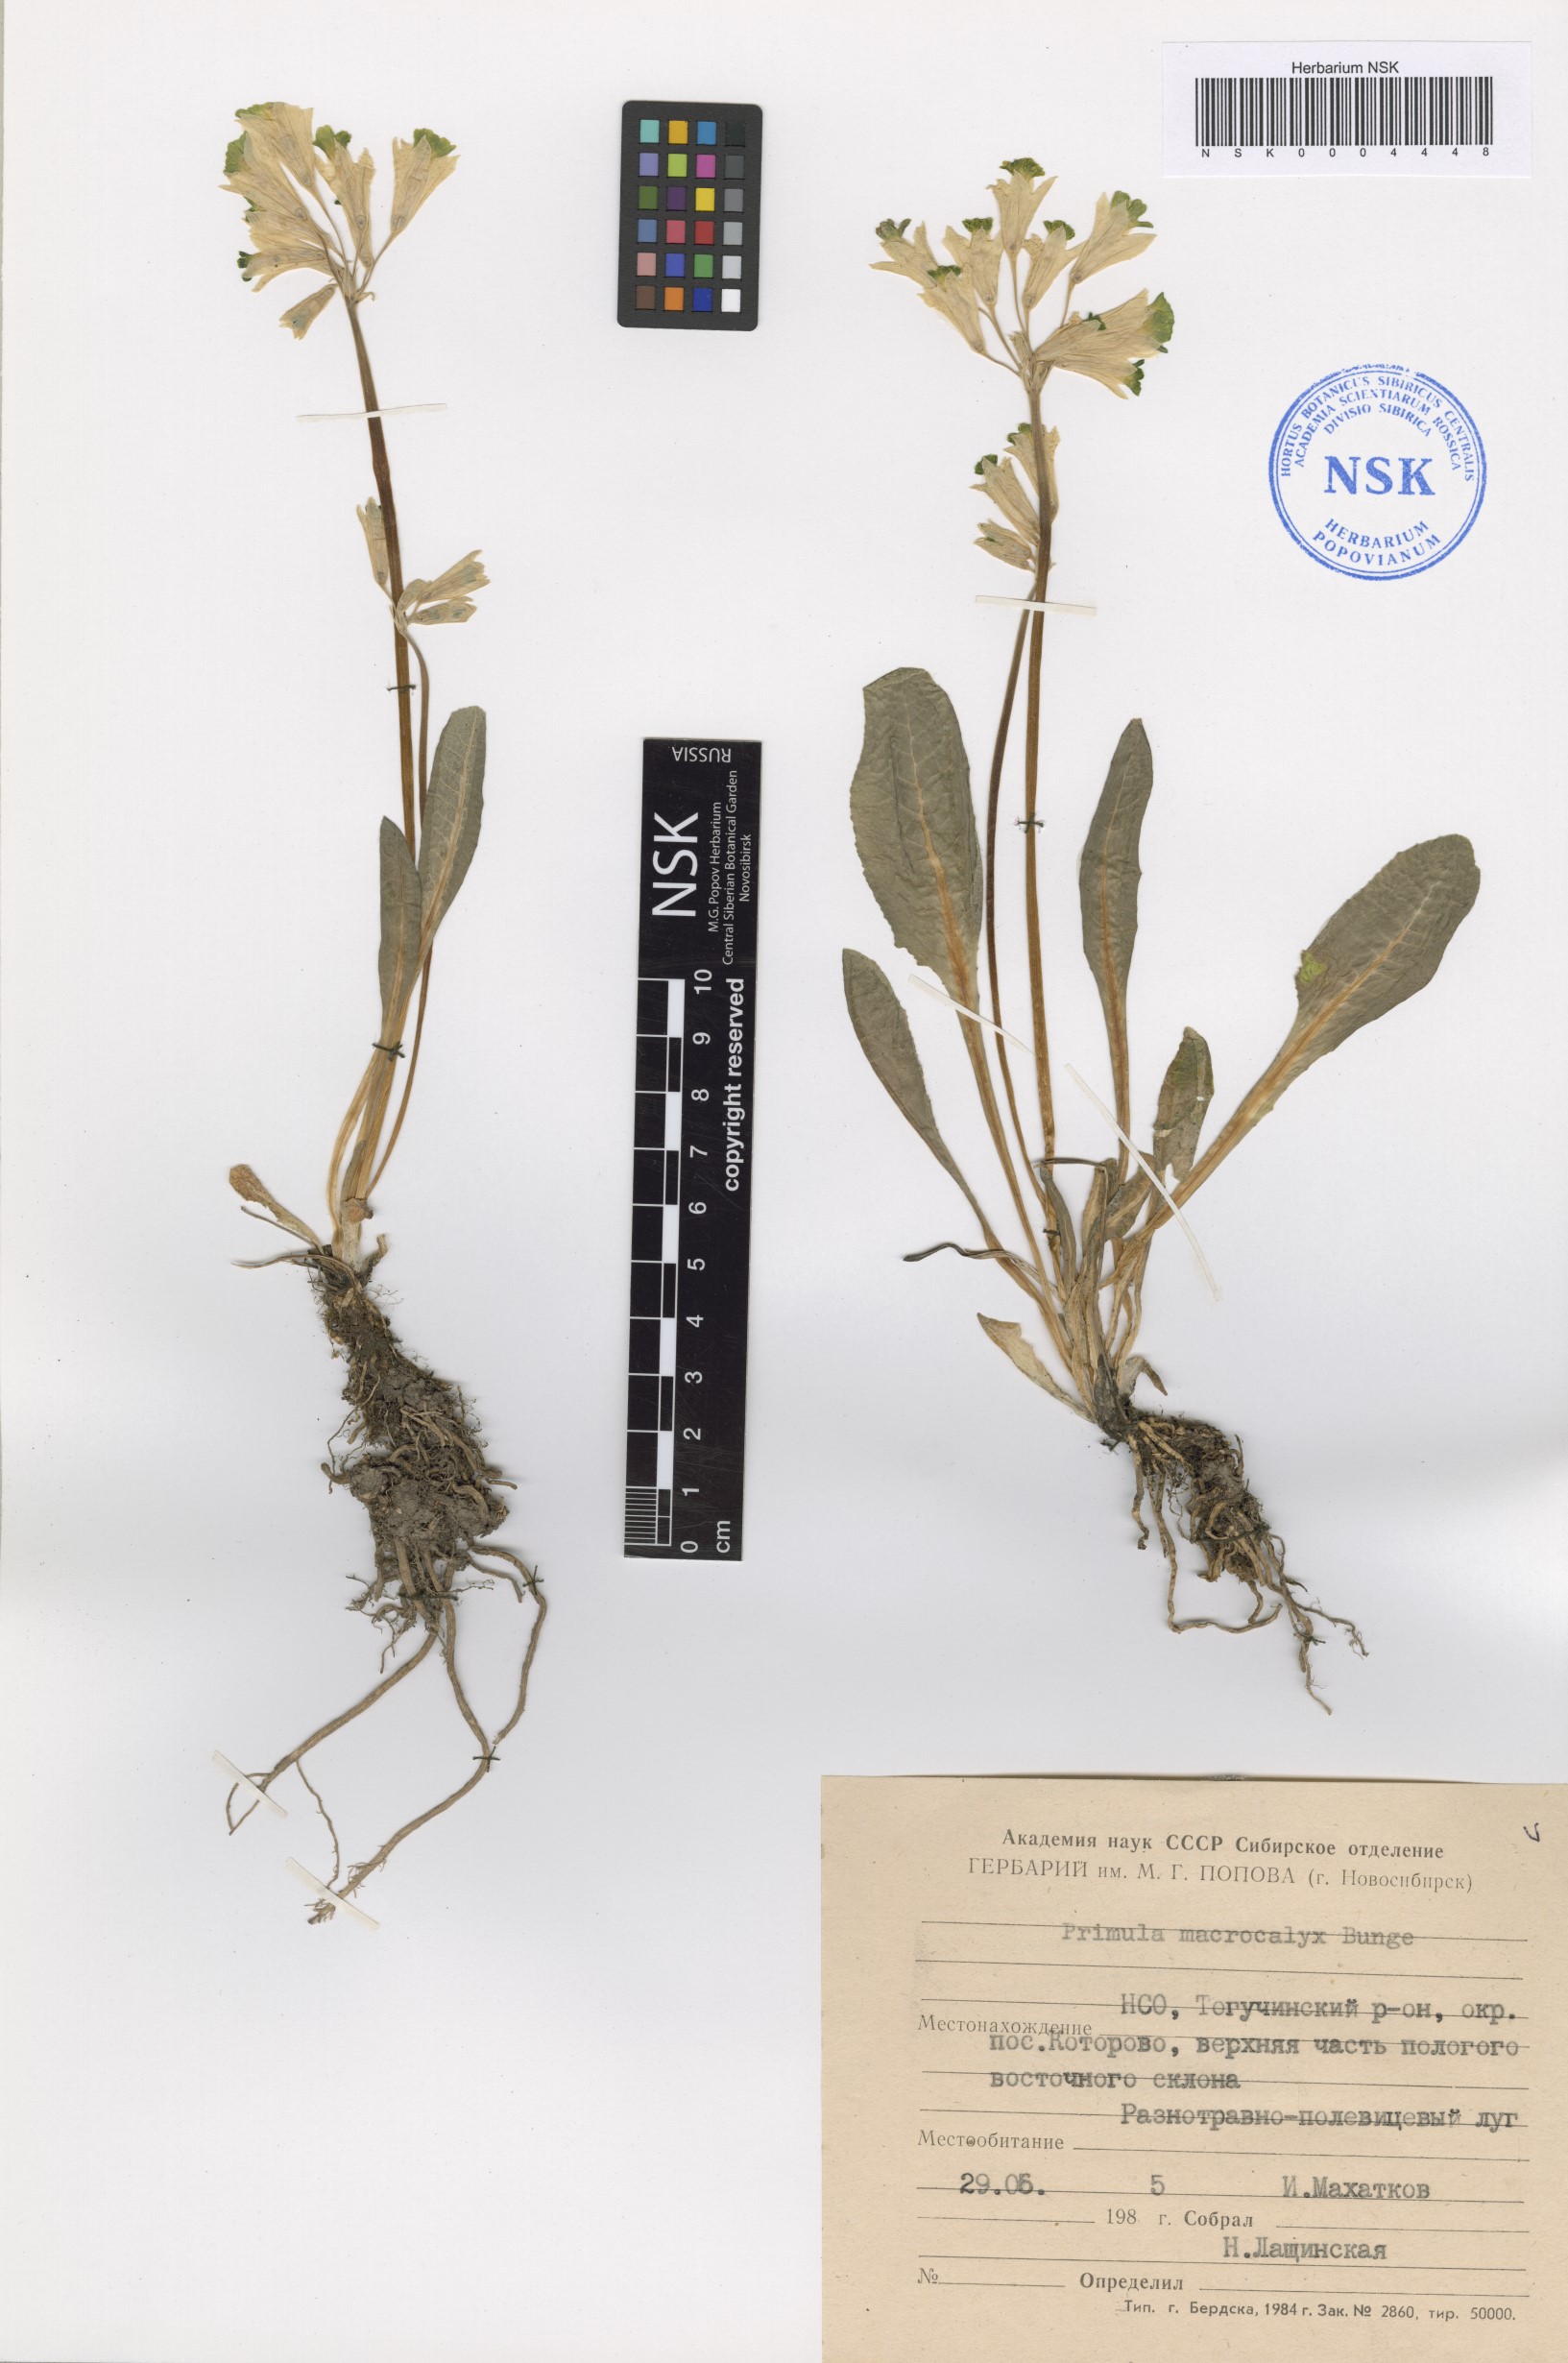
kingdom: Plantae
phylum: Tracheophyta
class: Magnoliopsida
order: Ericales
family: Primulaceae
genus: Primula
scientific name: Primula veris
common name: Cowslip
